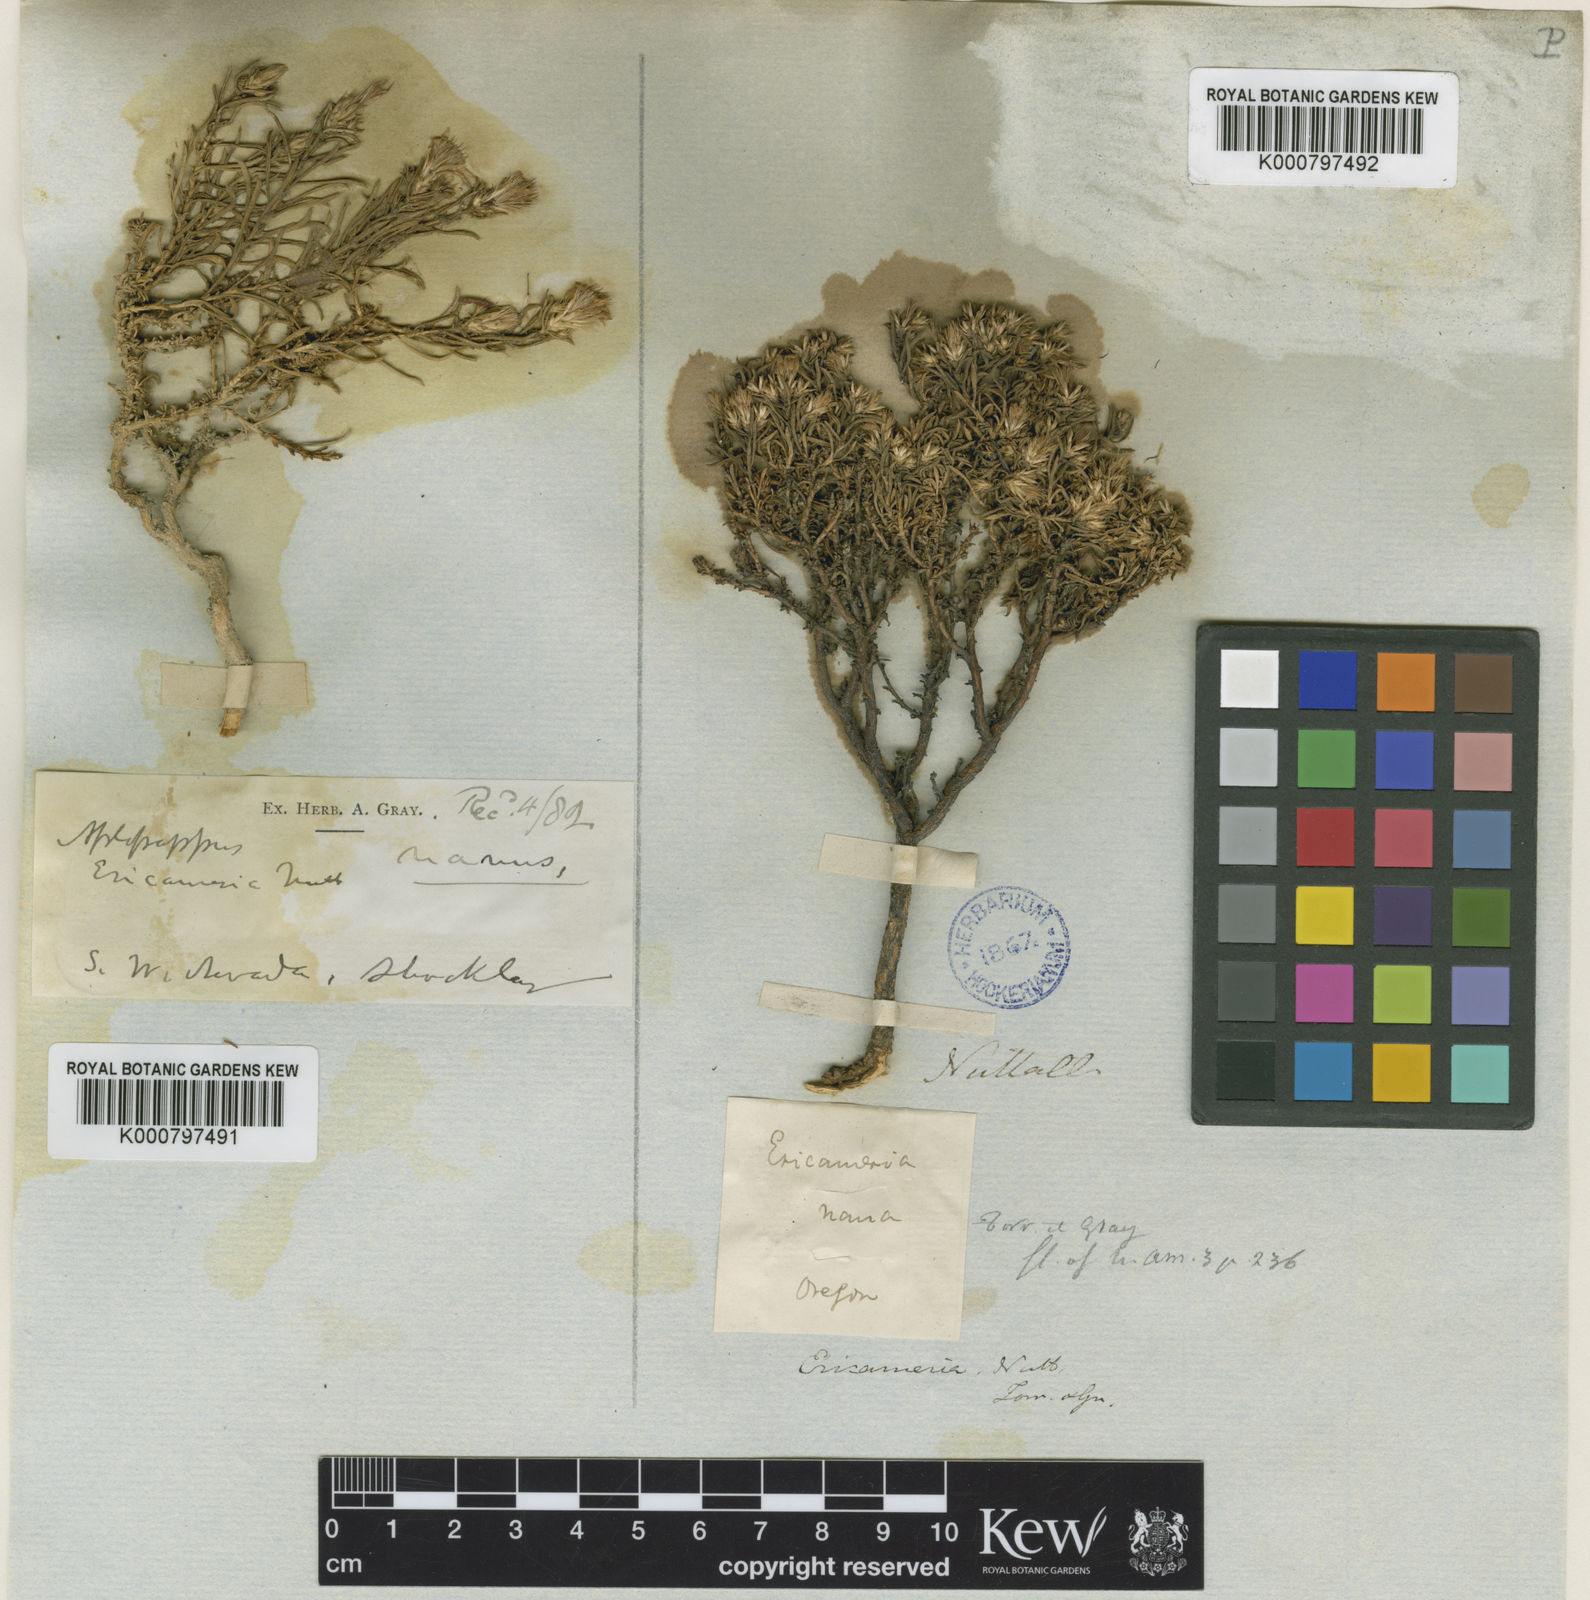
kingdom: Plantae
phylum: Tracheophyta
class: Magnoliopsida
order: Asterales
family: Asteraceae
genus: Ericameria
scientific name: Ericameria nana
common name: Dwarf goldenbush
